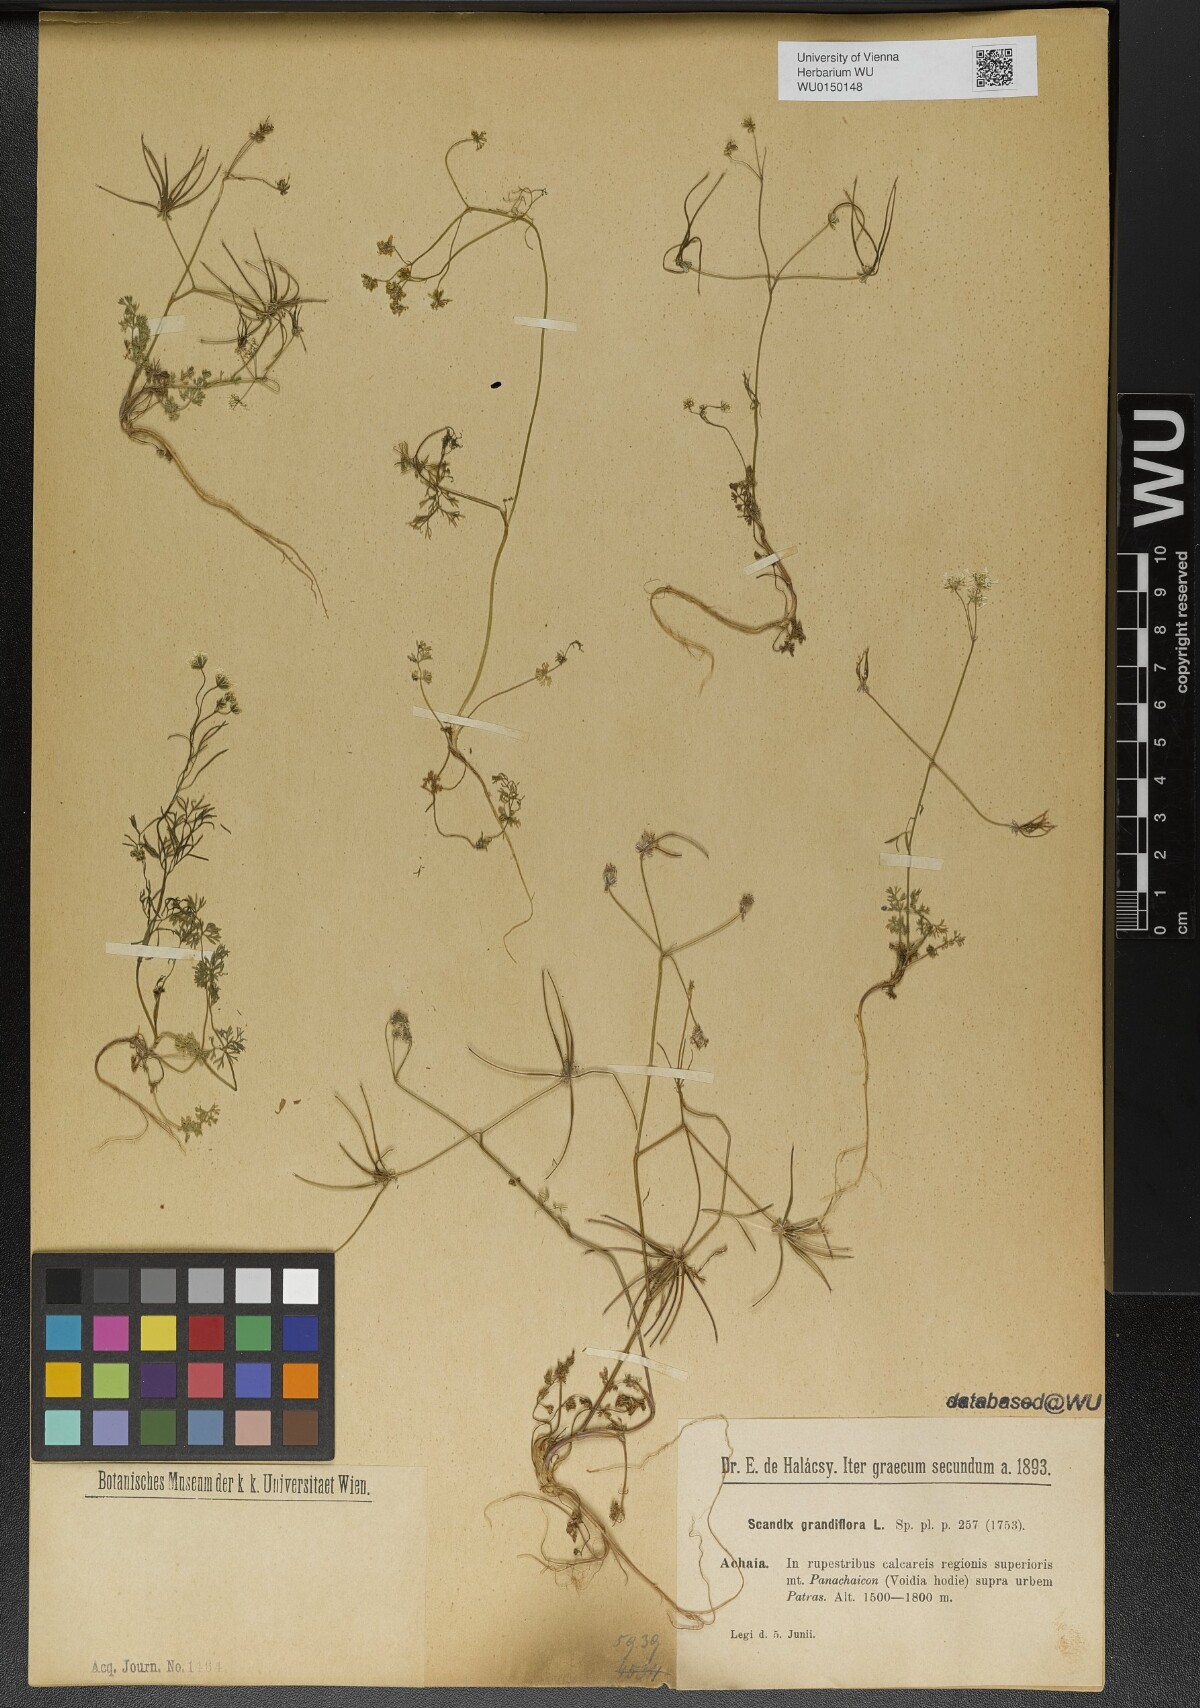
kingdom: Plantae
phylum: Tracheophyta
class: Magnoliopsida
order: Apiales
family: Apiaceae
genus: Scandix
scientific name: Scandix australis
